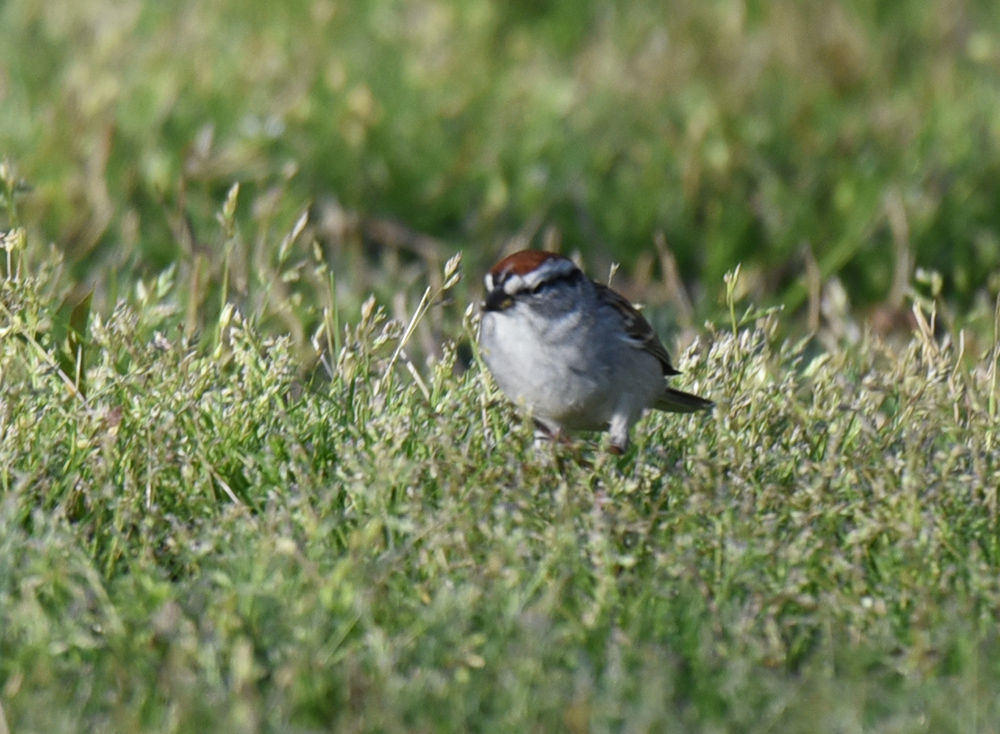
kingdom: Animalia
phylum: Chordata
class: Aves
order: Passeriformes
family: Passerellidae
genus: Spizella
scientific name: Spizella passerina
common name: Chipping sparrow
